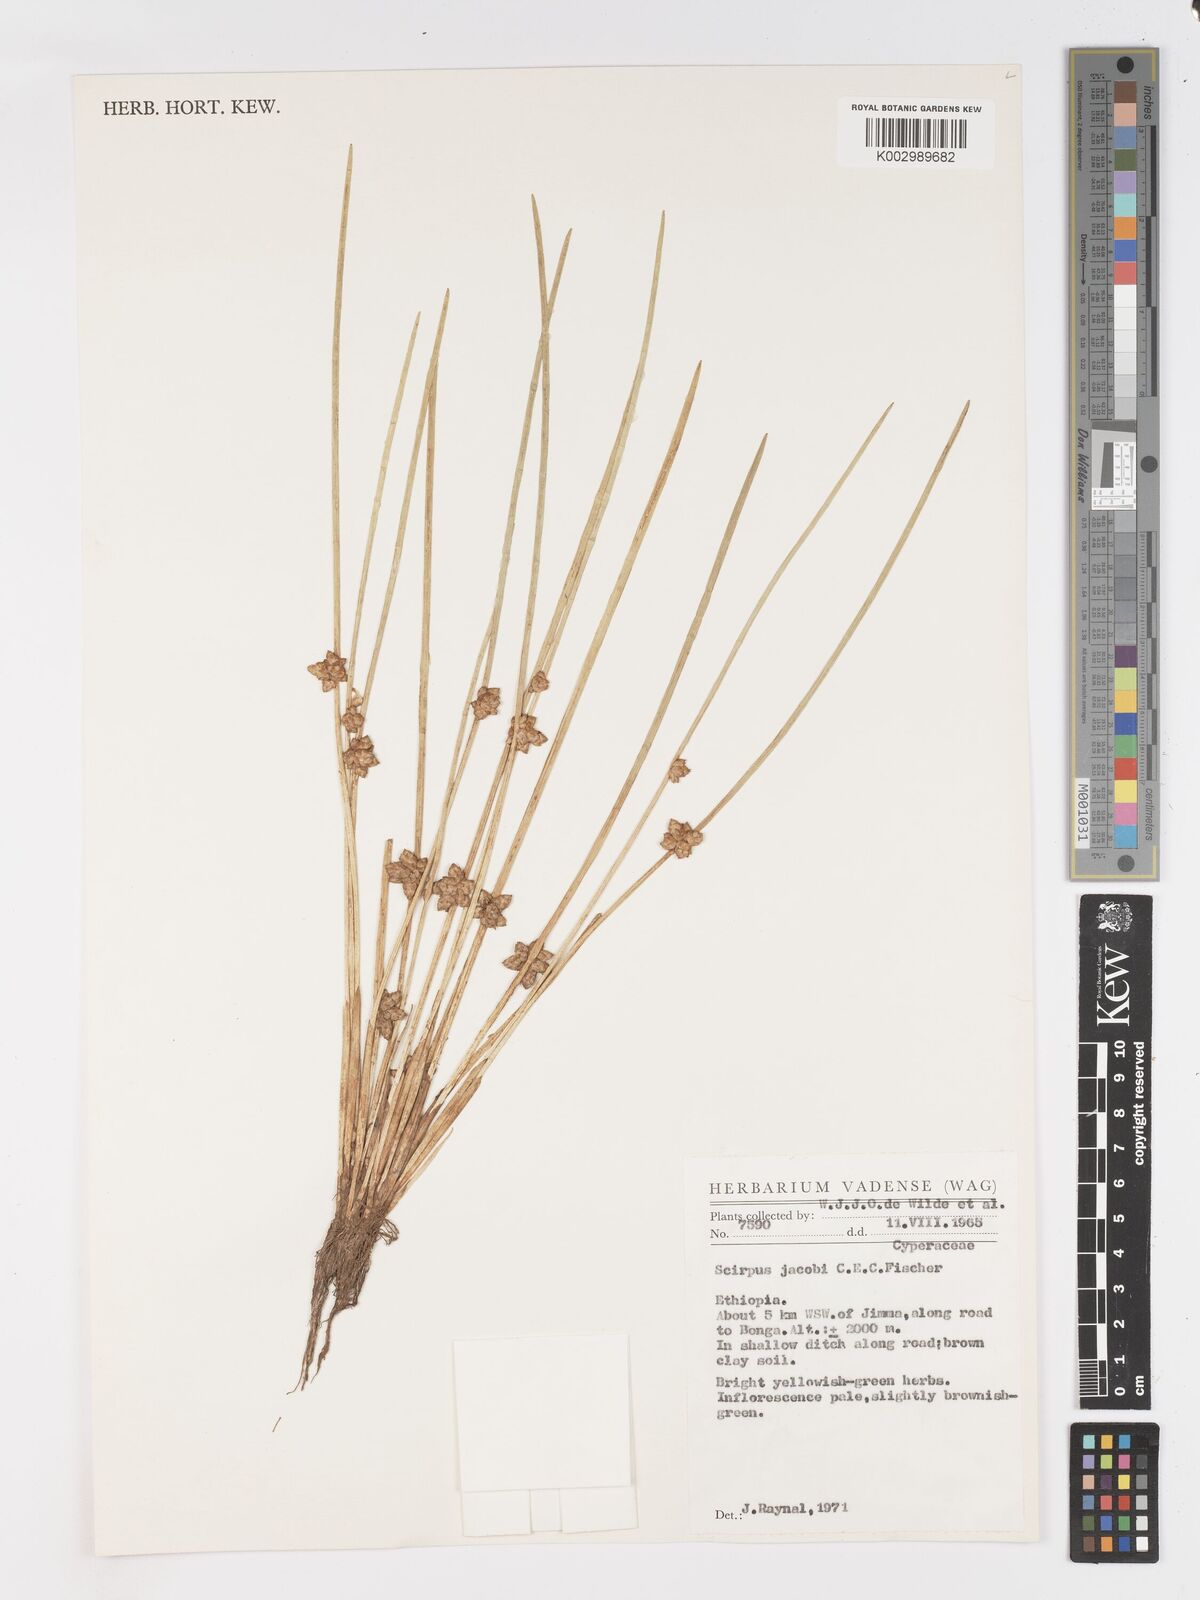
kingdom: Plantae
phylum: Tracheophyta
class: Liliopsida
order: Poales
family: Cyperaceae
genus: Schoenoplectiella
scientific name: Schoenoplectiella senegalensis
